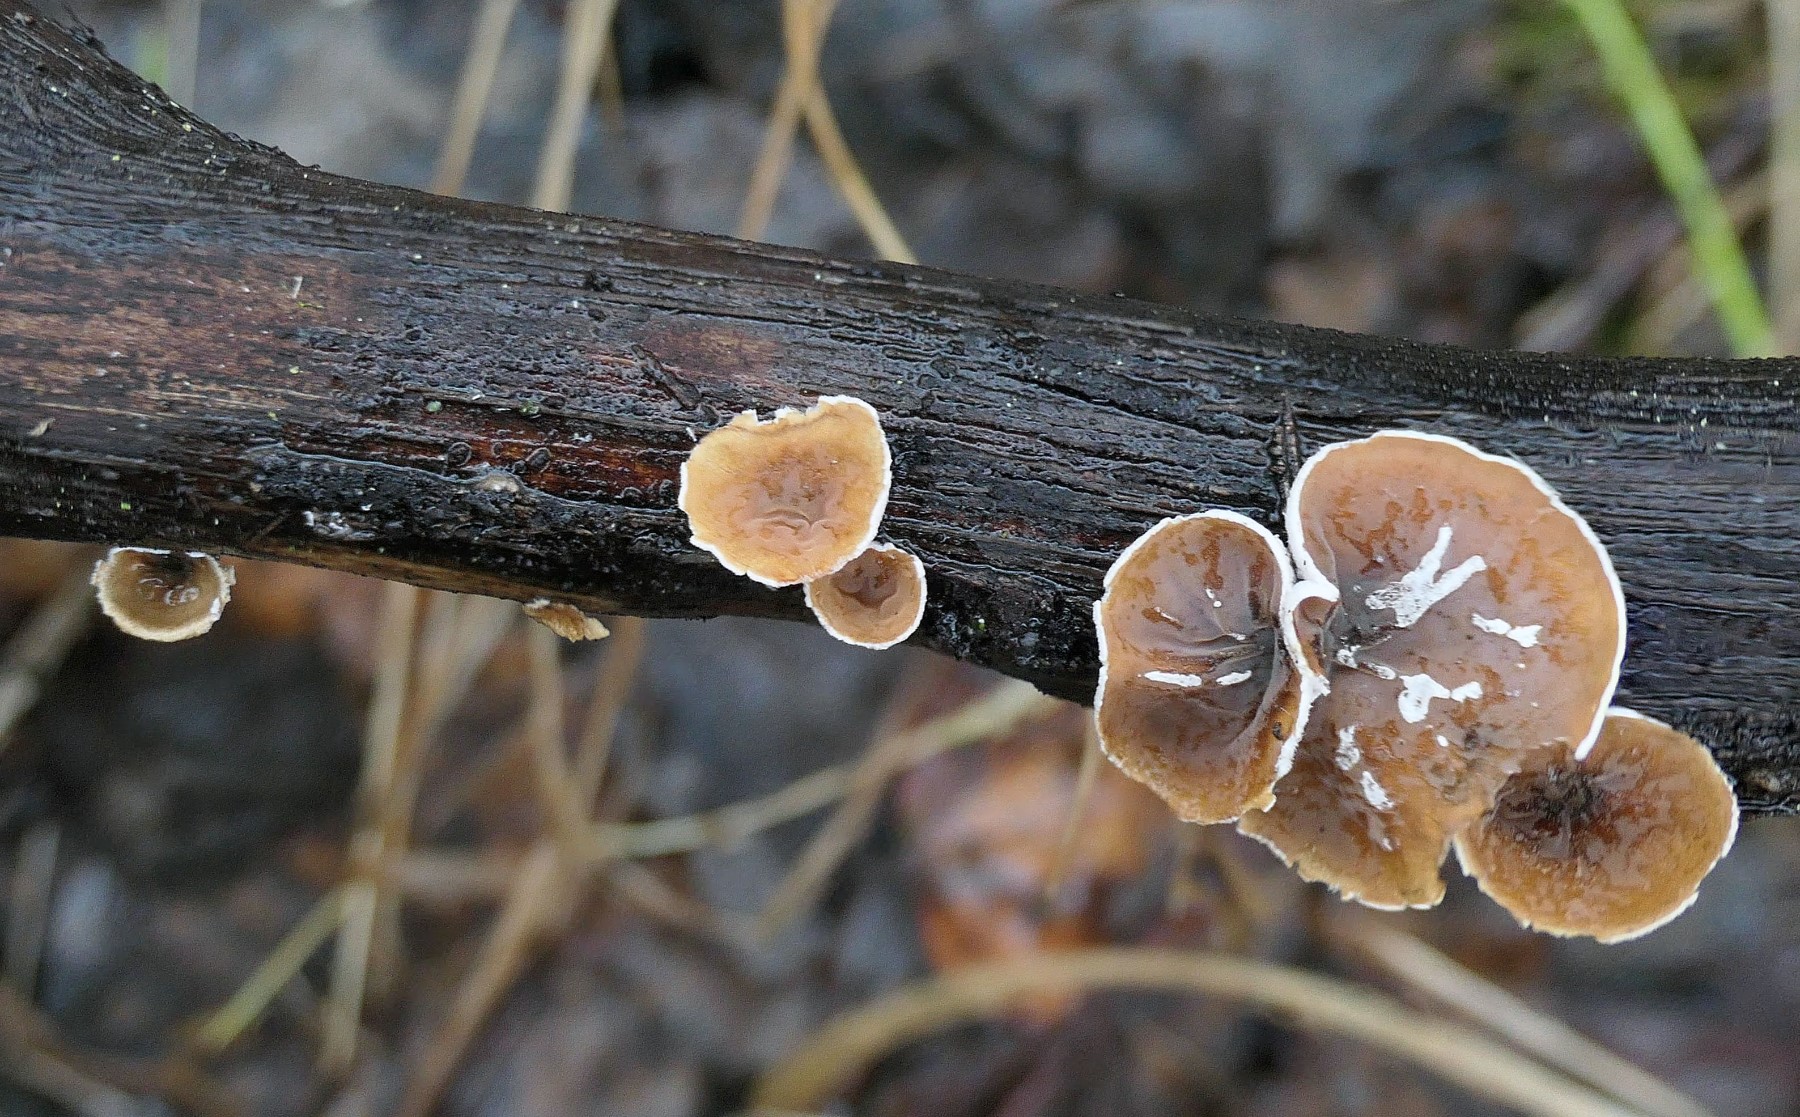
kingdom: Fungi
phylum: Basidiomycota
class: Agaricomycetes
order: Agaricales
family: Schizophyllaceae
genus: Schizophyllum
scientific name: Schizophyllum amplum
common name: poppel-hængeøre
